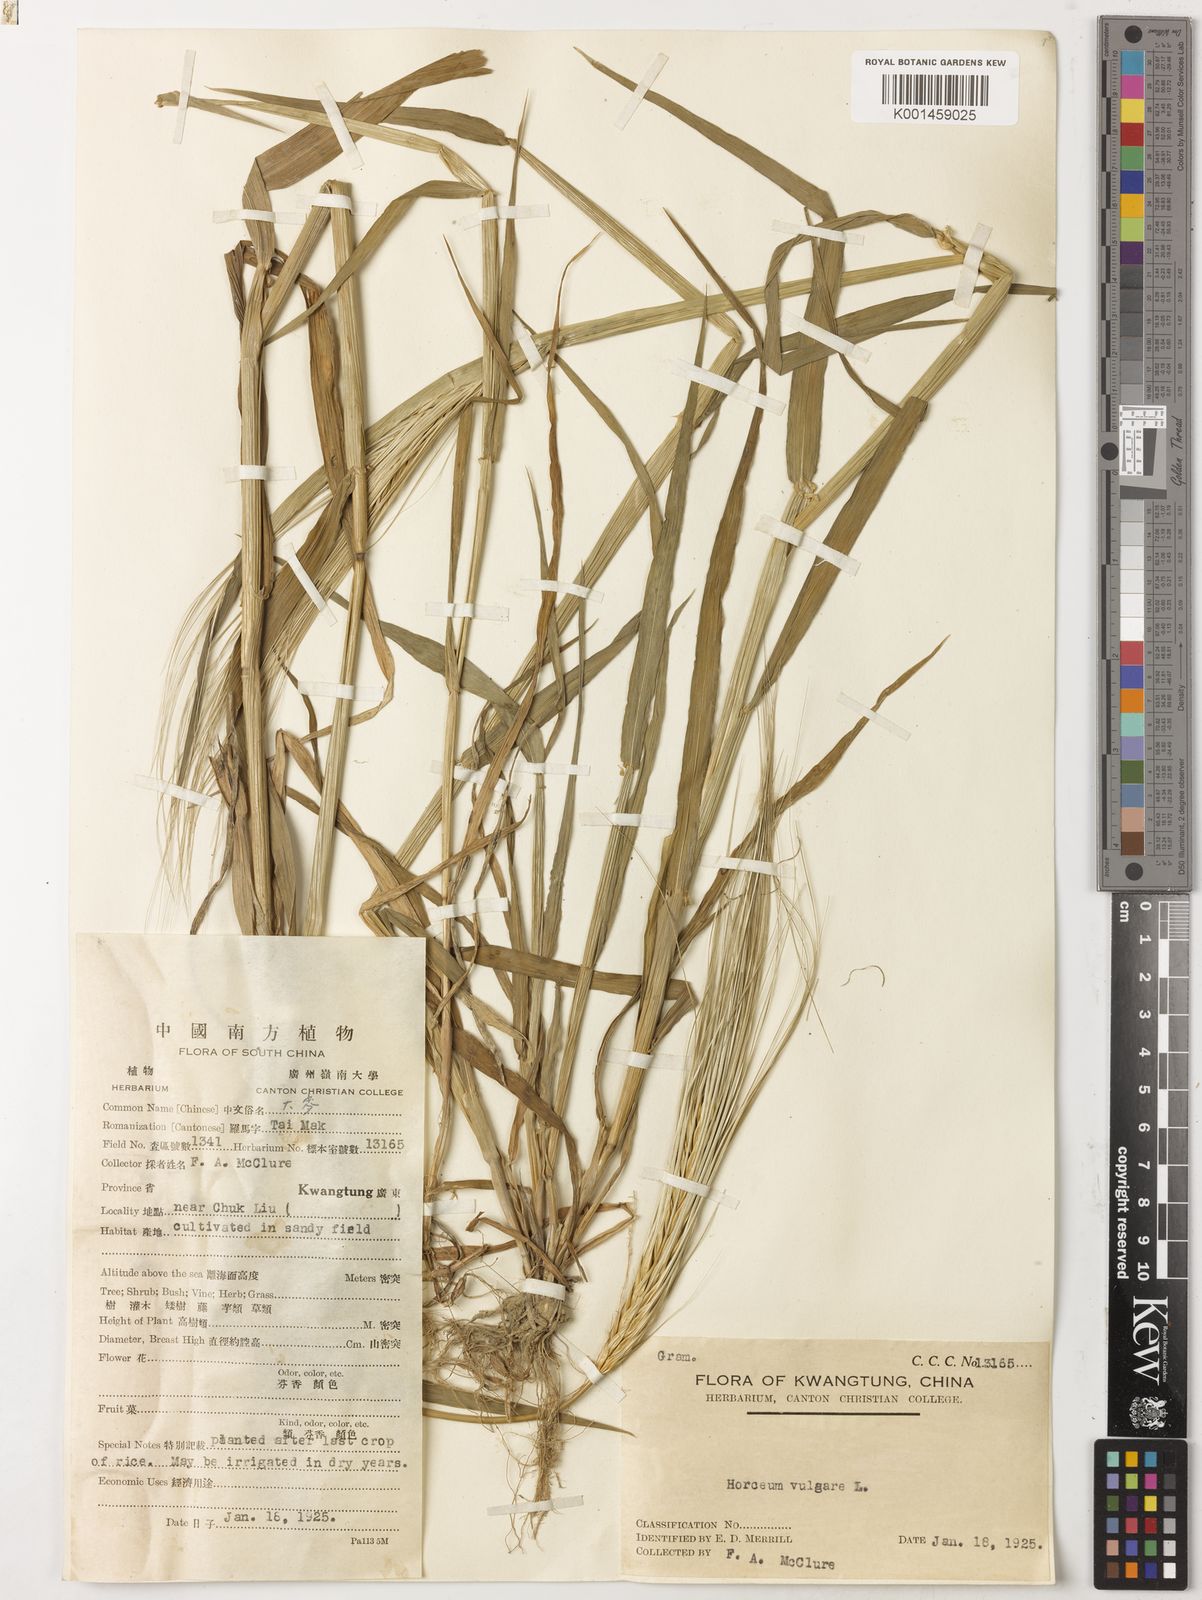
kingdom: Plantae
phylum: Tracheophyta
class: Liliopsida
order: Poales
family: Poaceae
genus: Hordeum
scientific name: Hordeum vulgare
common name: Common barley
